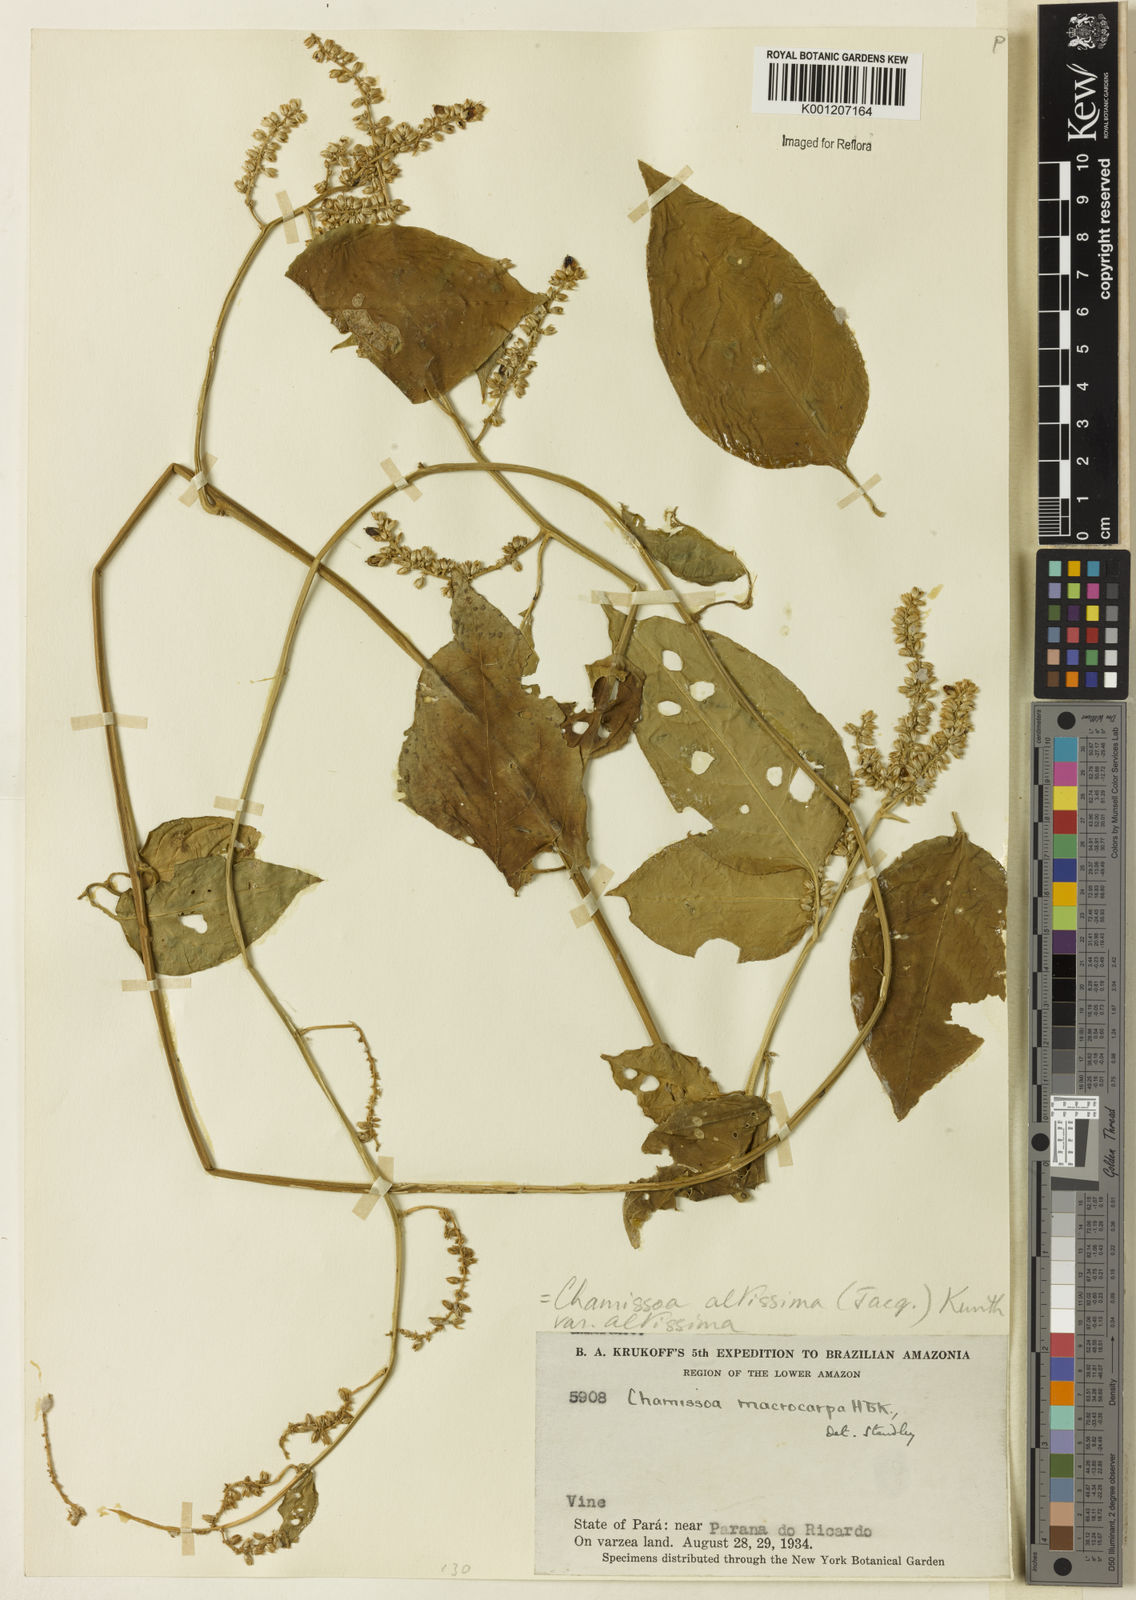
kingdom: Plantae
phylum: Tracheophyta
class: Magnoliopsida
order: Caryophyllales
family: Amaranthaceae
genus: Chamissoa
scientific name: Chamissoa altissima
